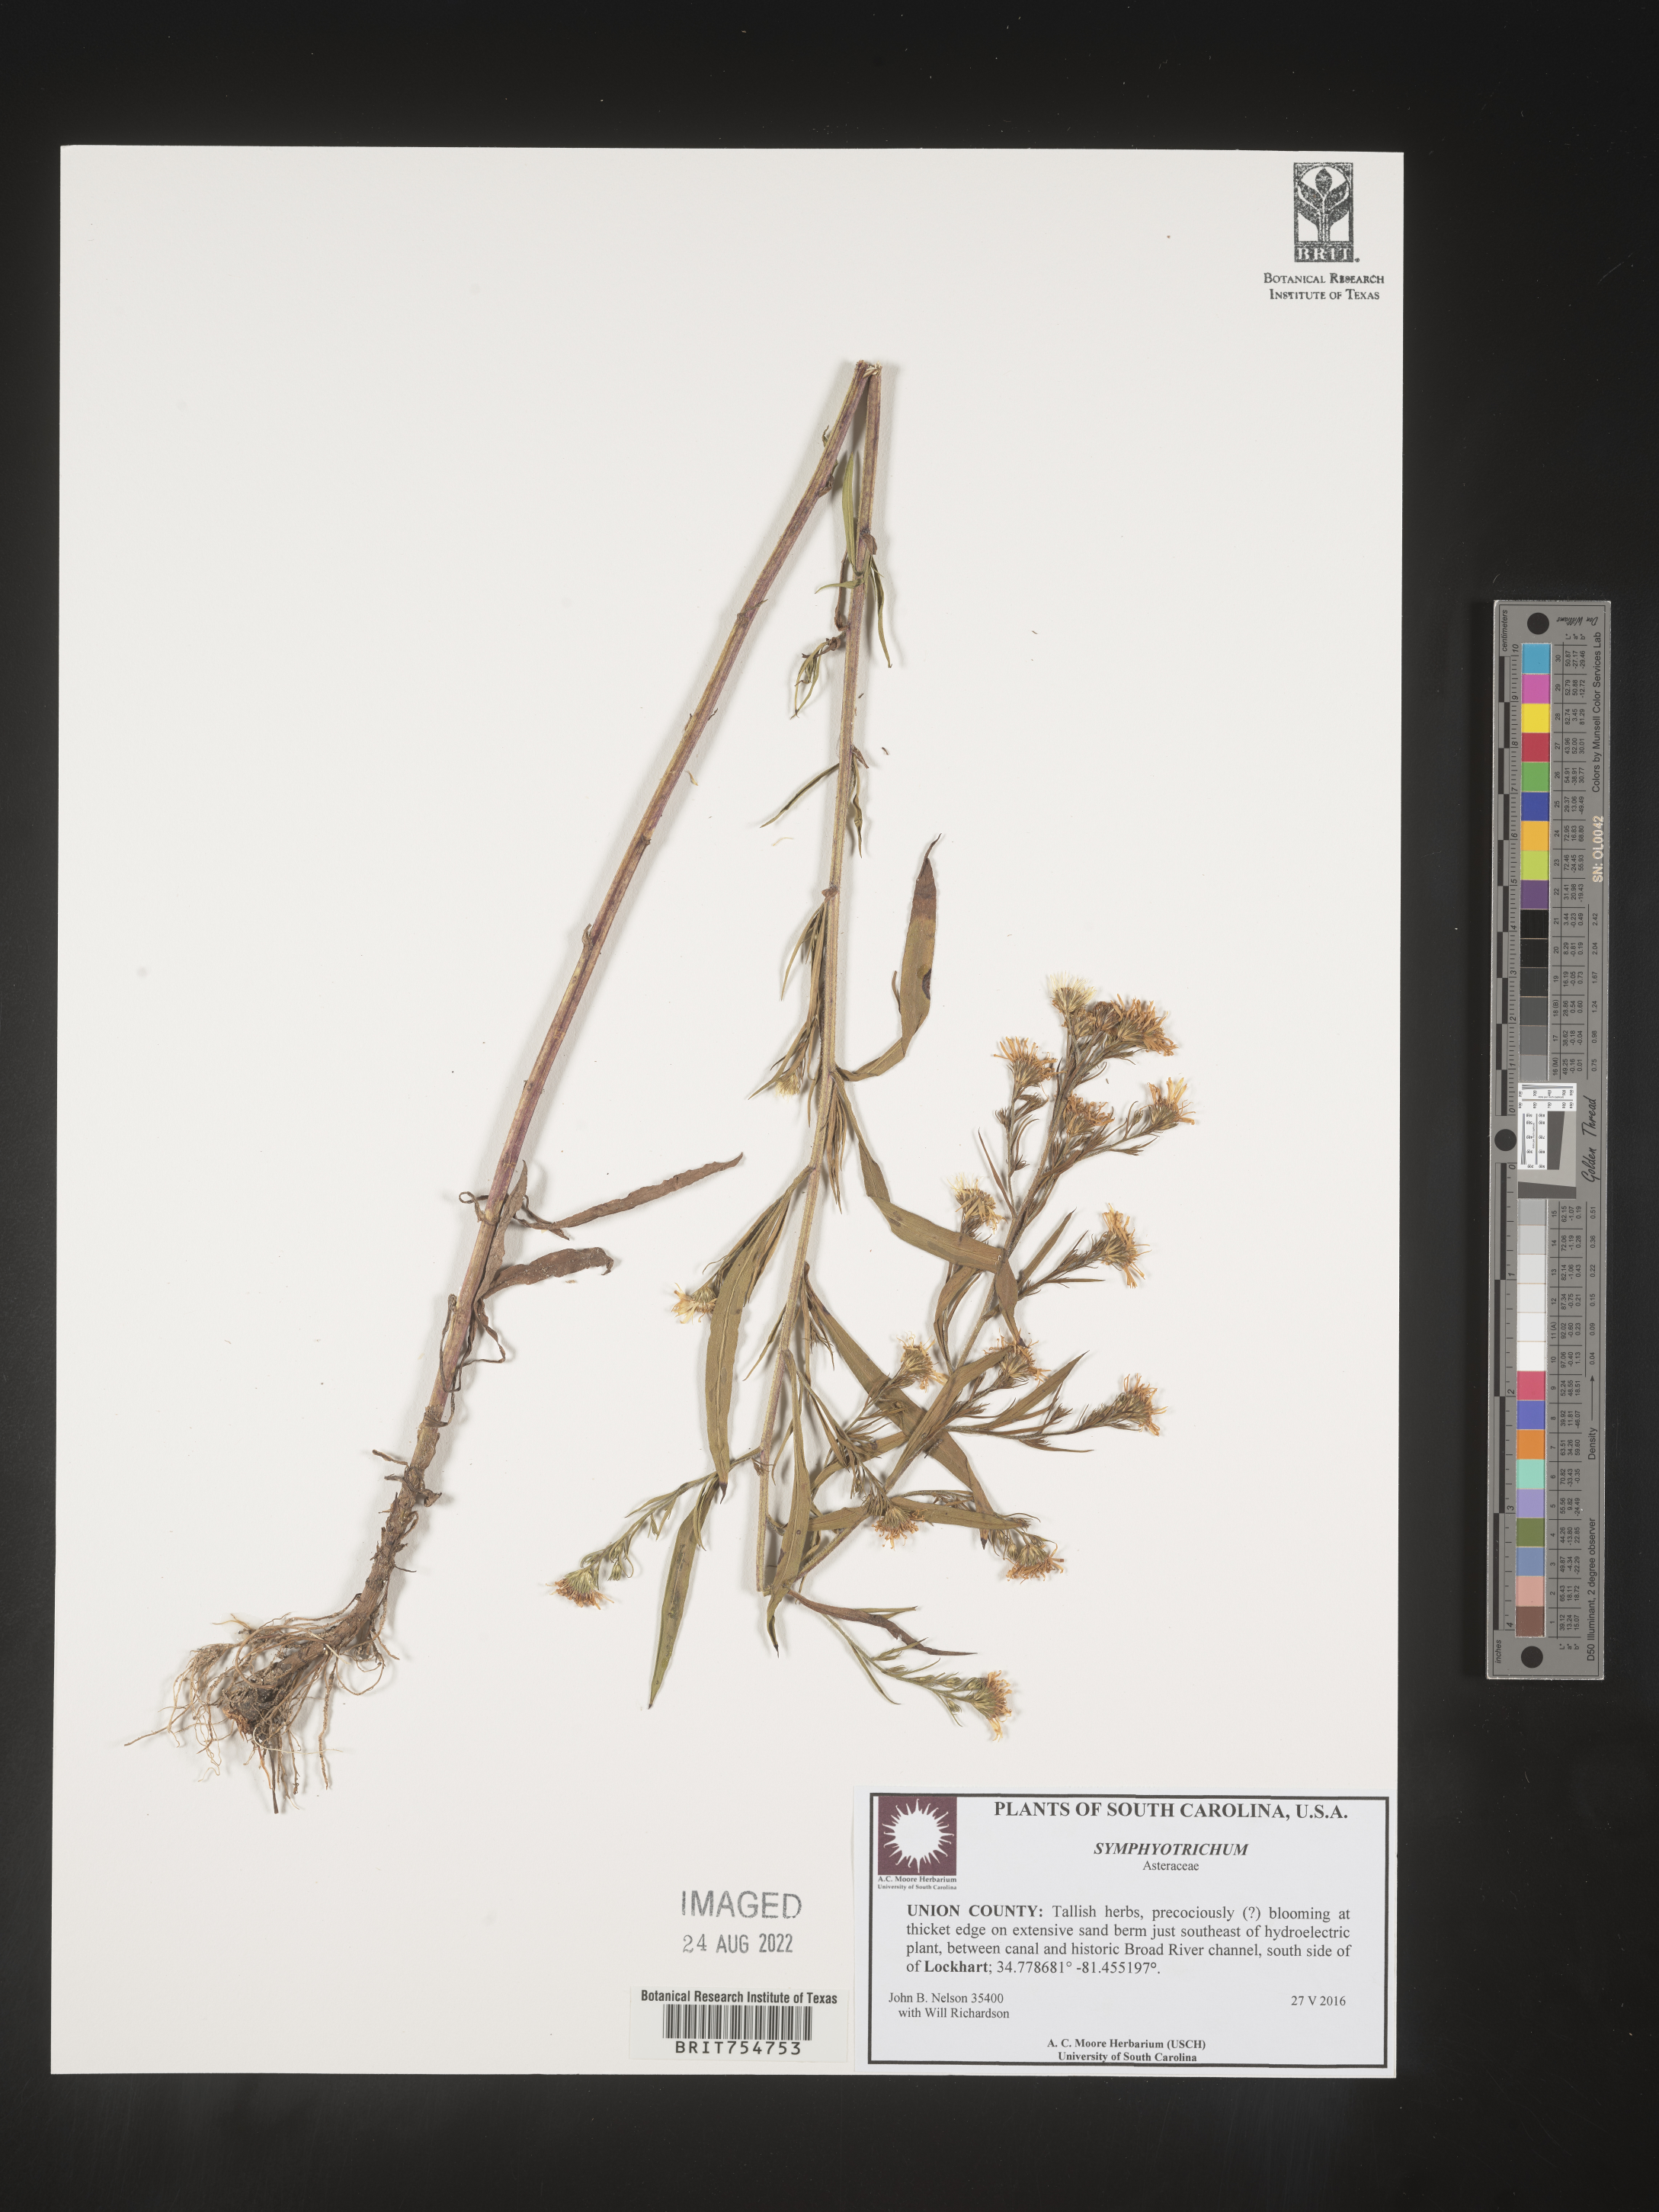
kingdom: Plantae
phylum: Tracheophyta
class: Magnoliopsida
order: Asterales
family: Asteraceae
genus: Symphyotrichum
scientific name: Symphyotrichum
